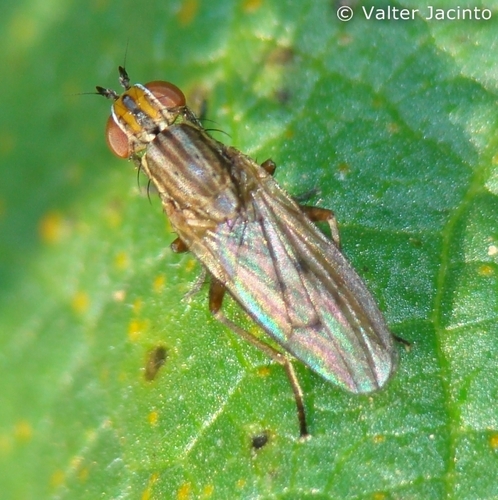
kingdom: Animalia
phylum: Arthropoda
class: Insecta
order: Diptera
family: Sciomyzidae
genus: Pherbellia
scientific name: Pherbellia cinerella
